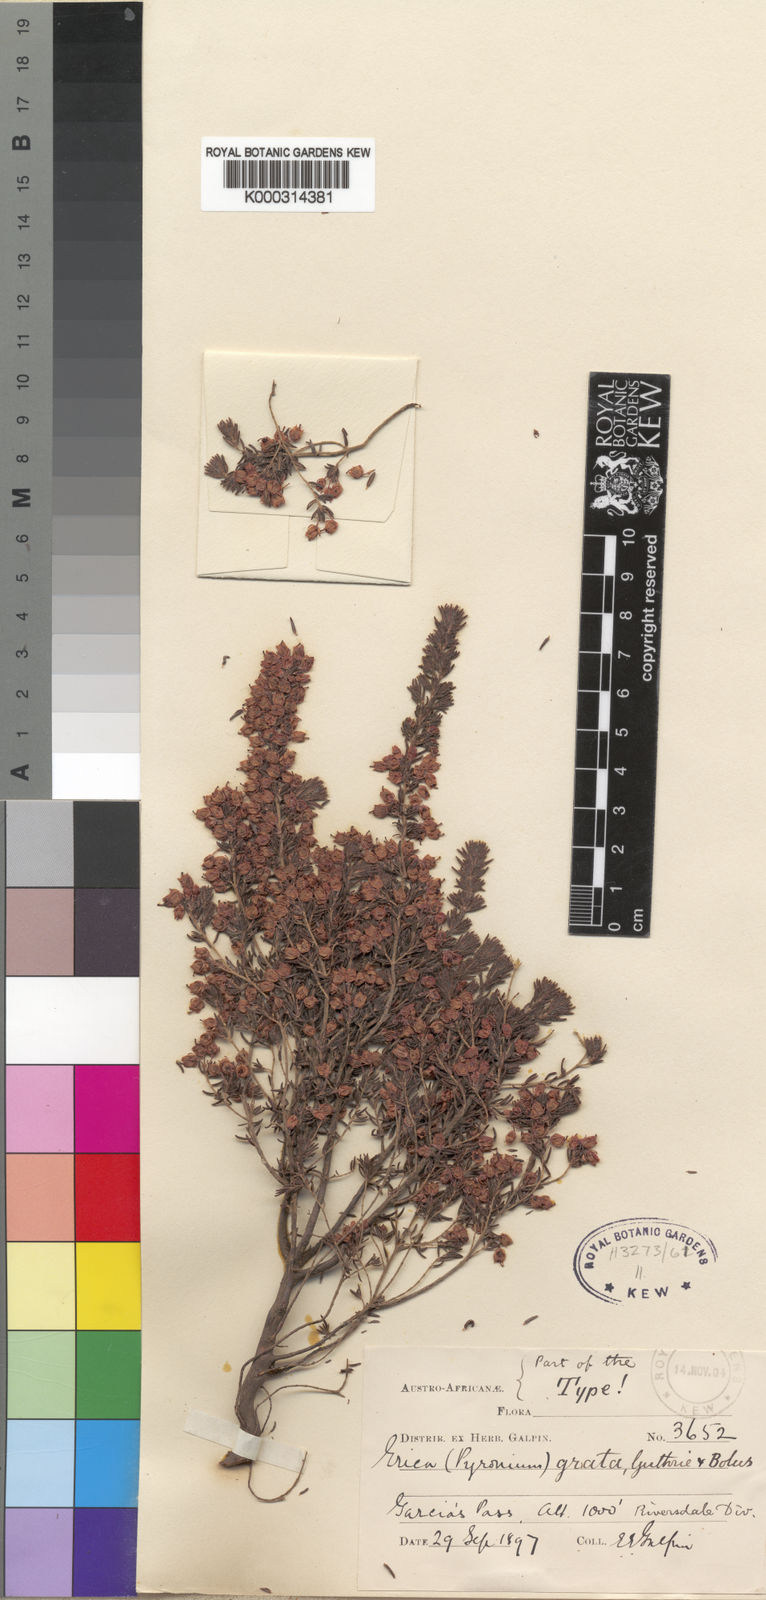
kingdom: Plantae
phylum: Tracheophyta
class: Magnoliopsida
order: Ericales
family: Ericaceae
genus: Erica
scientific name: Erica grata
